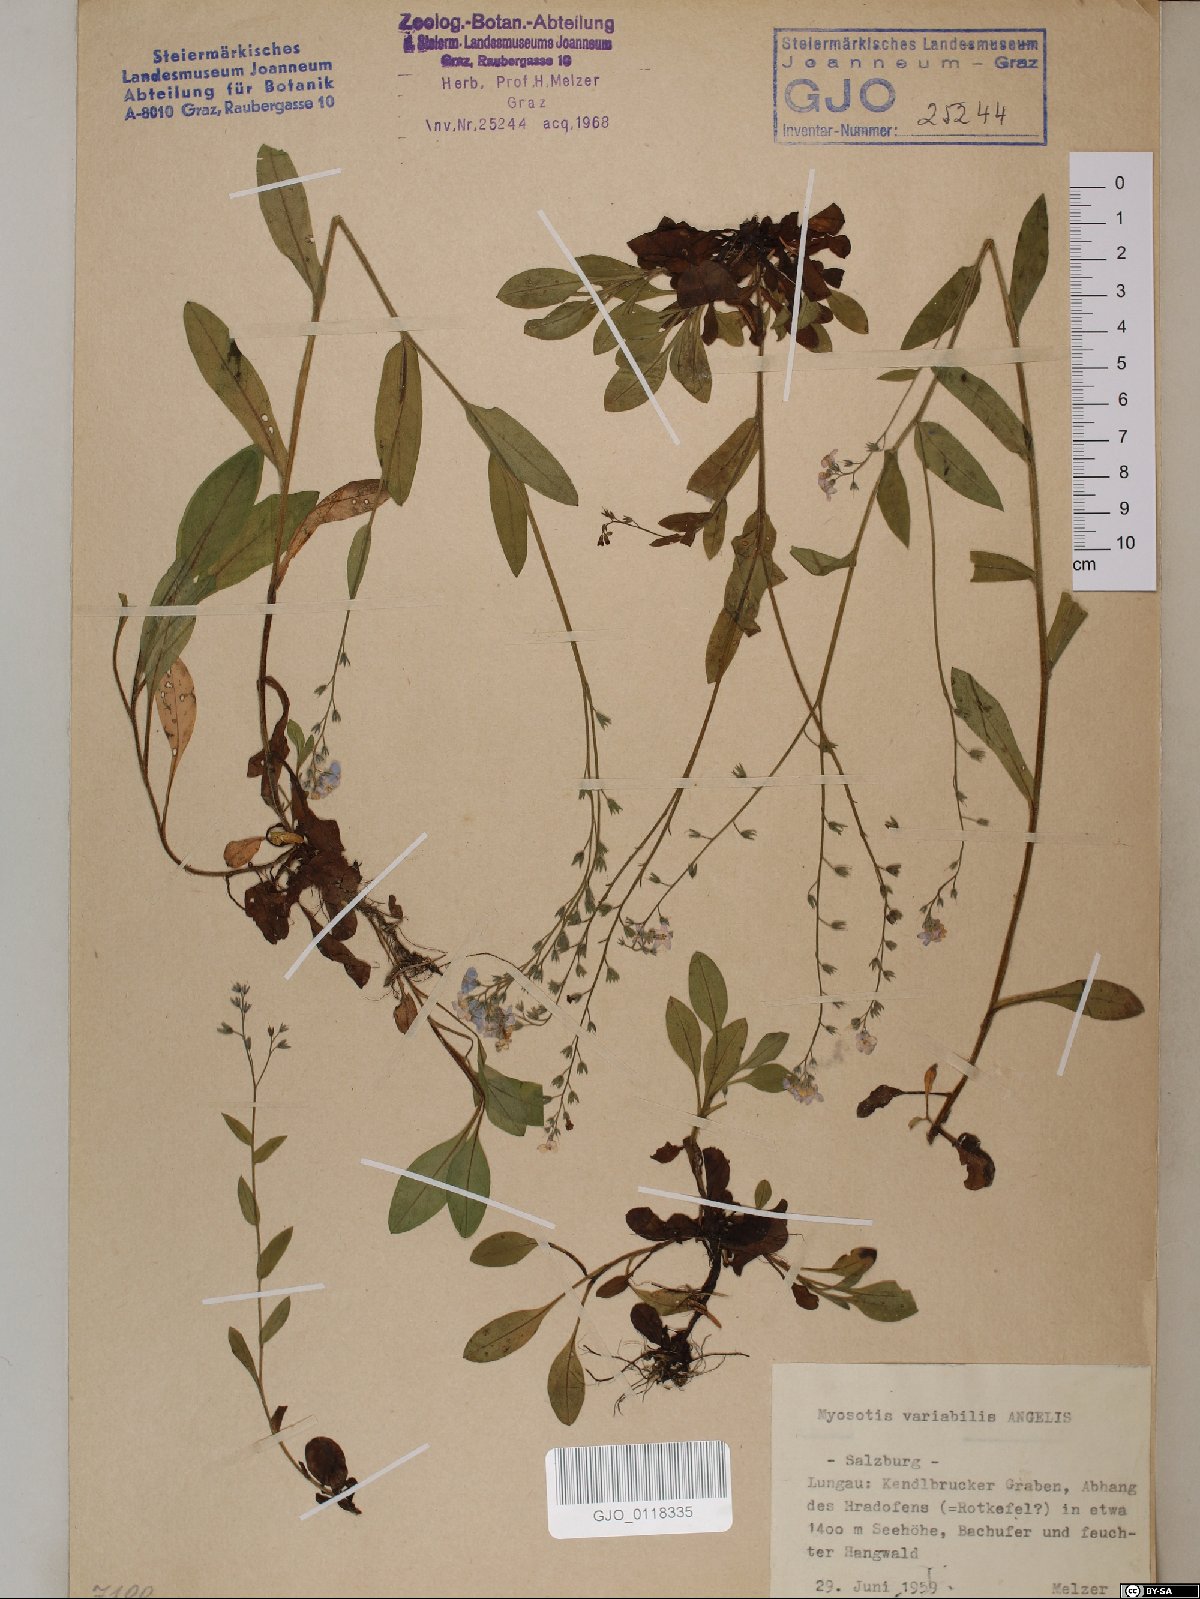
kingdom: Plantae
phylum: Tracheophyta
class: Magnoliopsida
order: Boraginales
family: Boraginaceae
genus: Myosotis
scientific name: Myosotis decumbens
